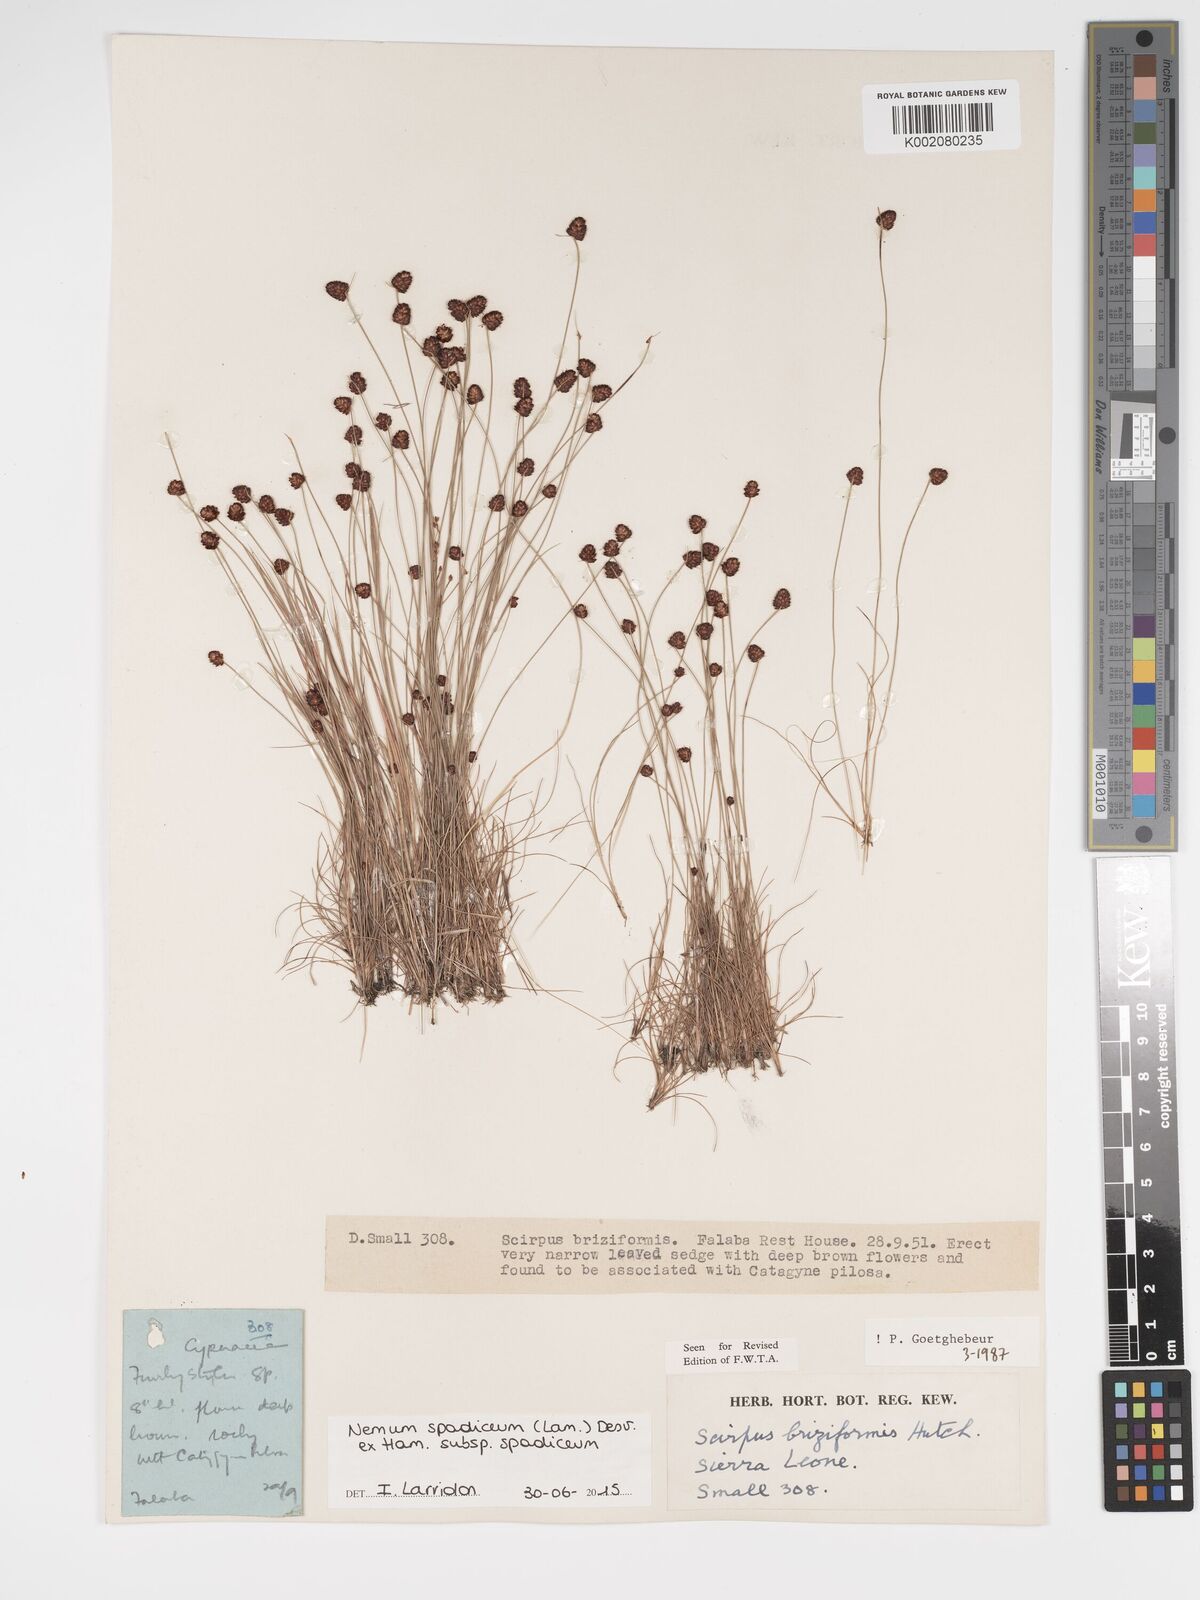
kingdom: Plantae
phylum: Tracheophyta
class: Liliopsida
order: Poales
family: Cyperaceae
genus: Bulbostylis
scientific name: Bulbostylis briziformis
